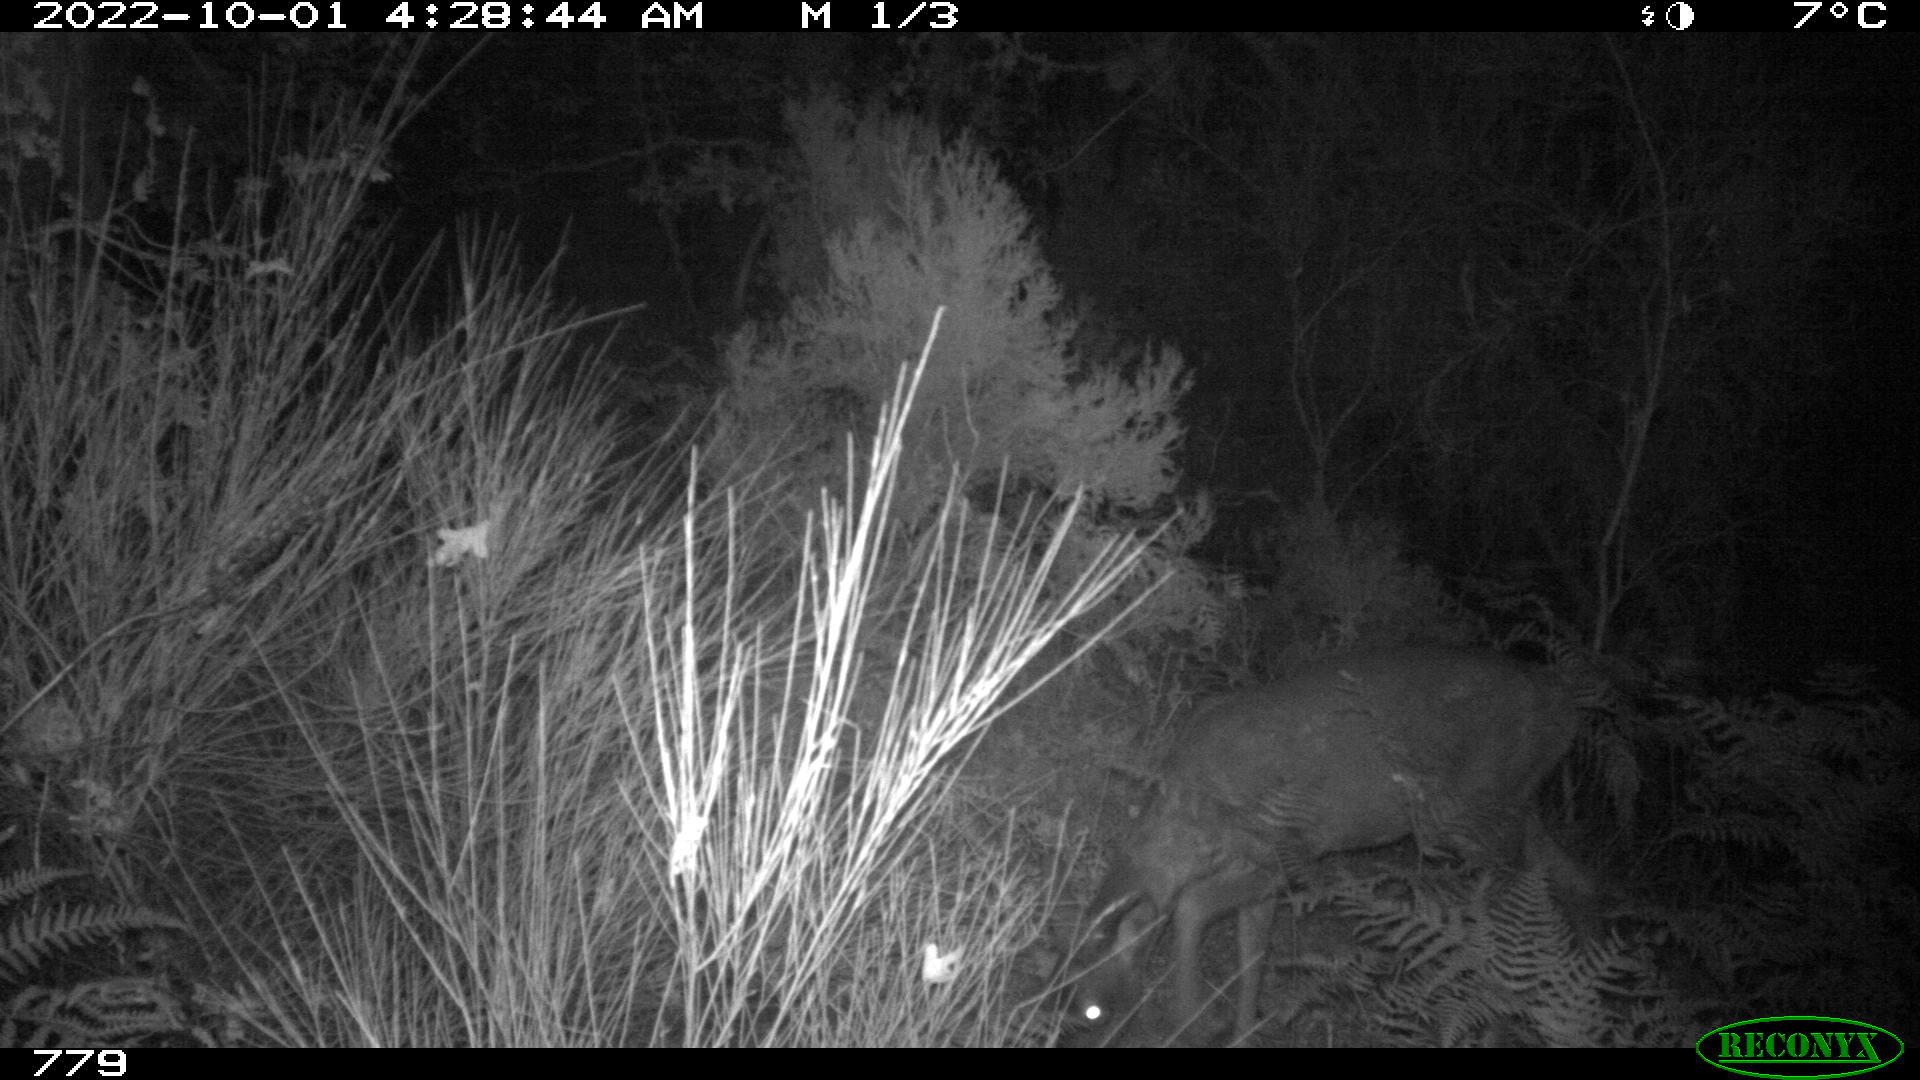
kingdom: Animalia
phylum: Chordata
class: Mammalia
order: Artiodactyla
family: Cervidae
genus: Capreolus
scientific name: Capreolus capreolus
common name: Western roe deer
